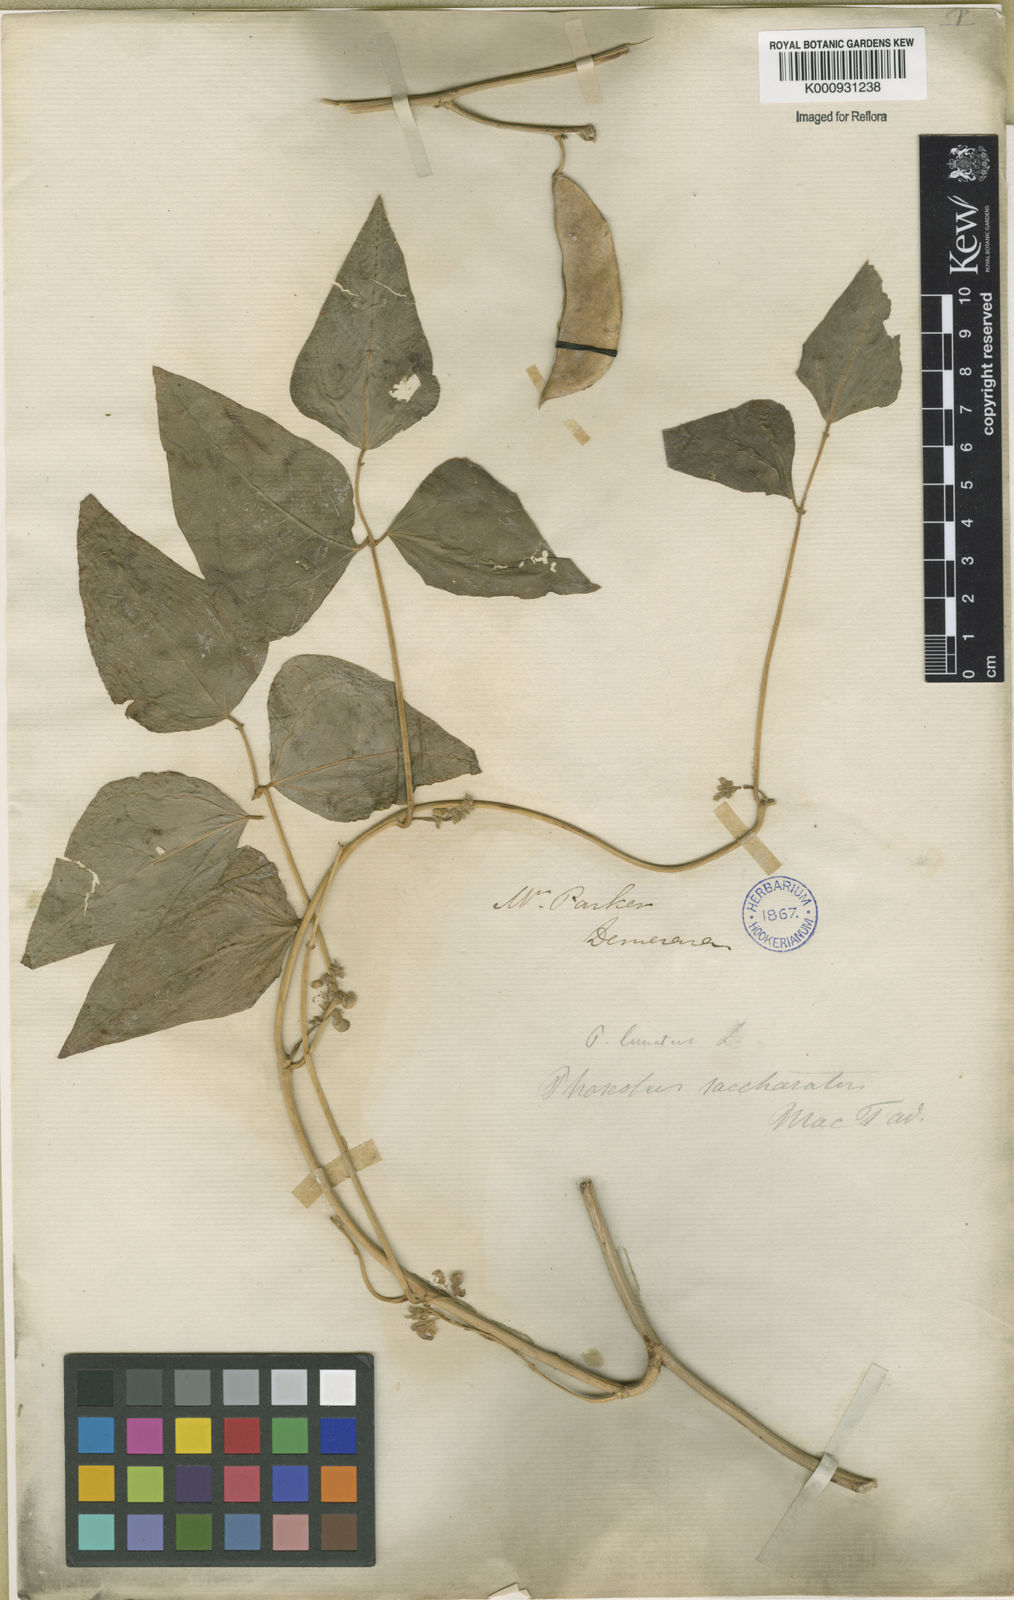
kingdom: Plantae
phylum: Tracheophyta
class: Magnoliopsida
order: Fabales
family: Fabaceae
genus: Phaseolus
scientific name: Phaseolus lunatus
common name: Sieva bean
